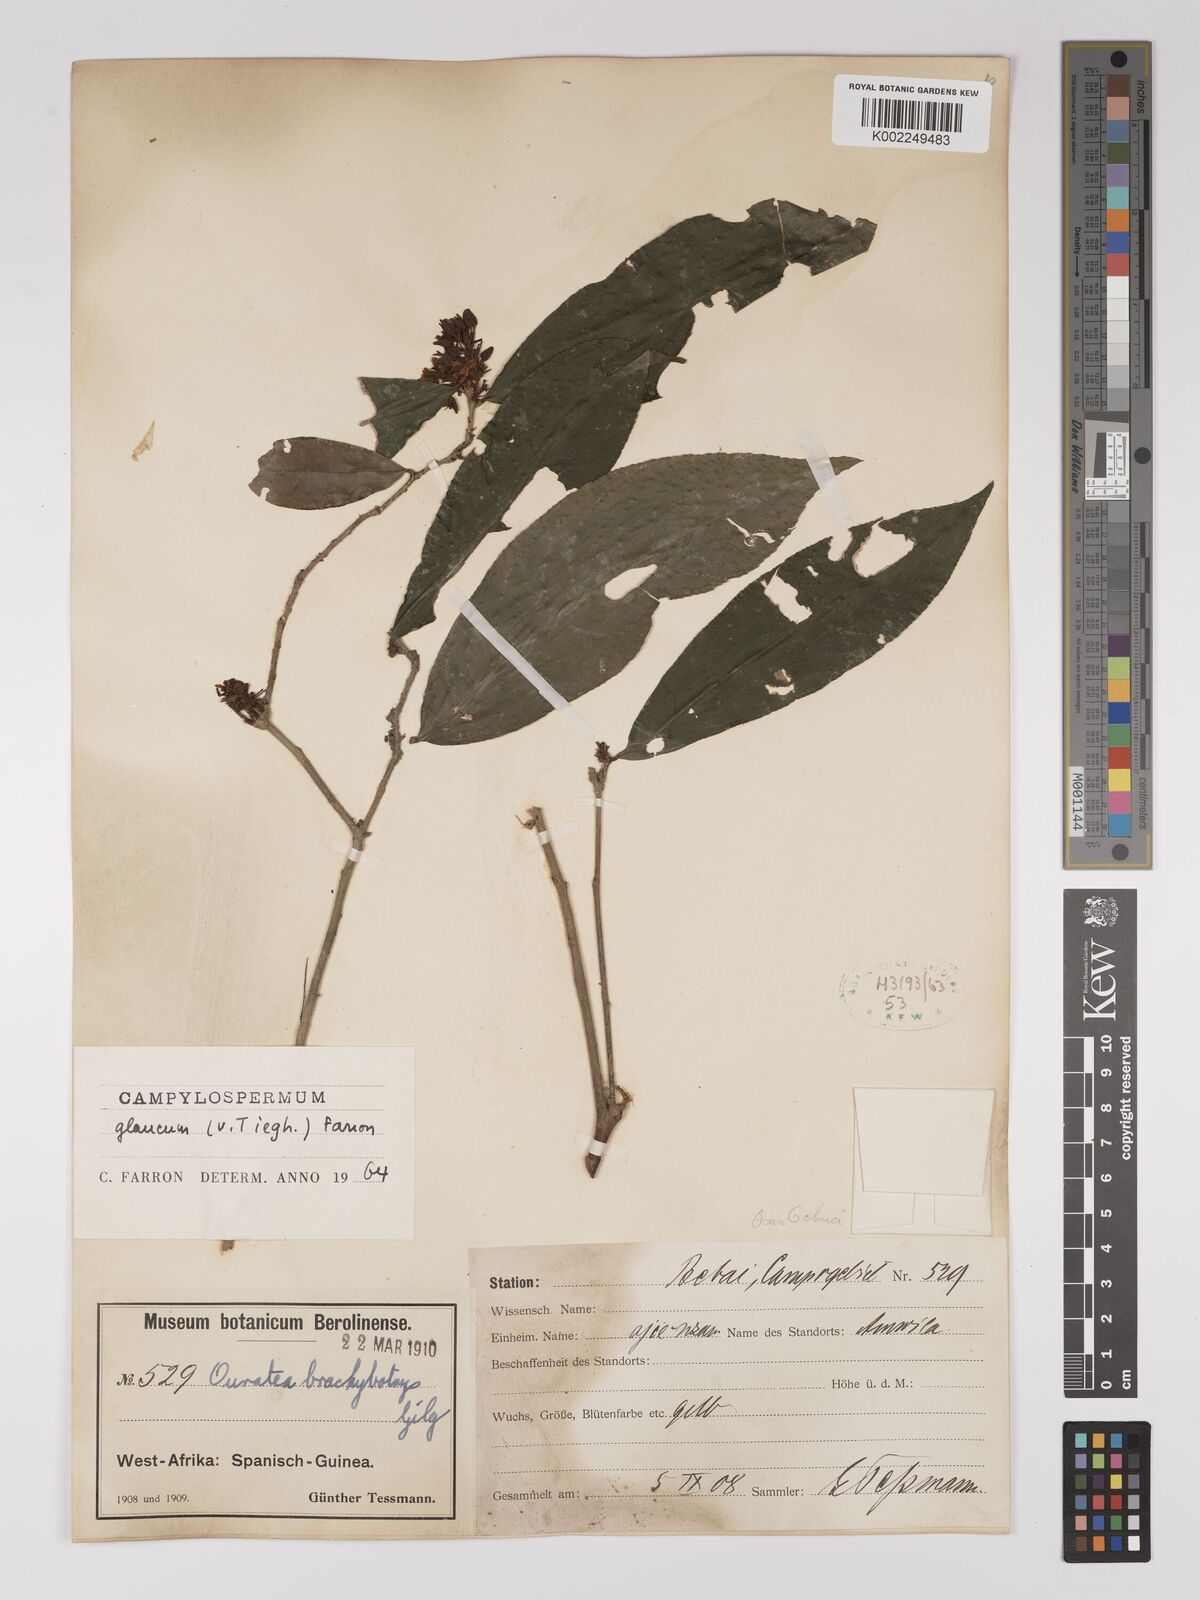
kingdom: Plantae
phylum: Tracheophyta
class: Magnoliopsida
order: Malpighiales
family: Ochnaceae
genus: Campylospermum
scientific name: Campylospermum glaucum
